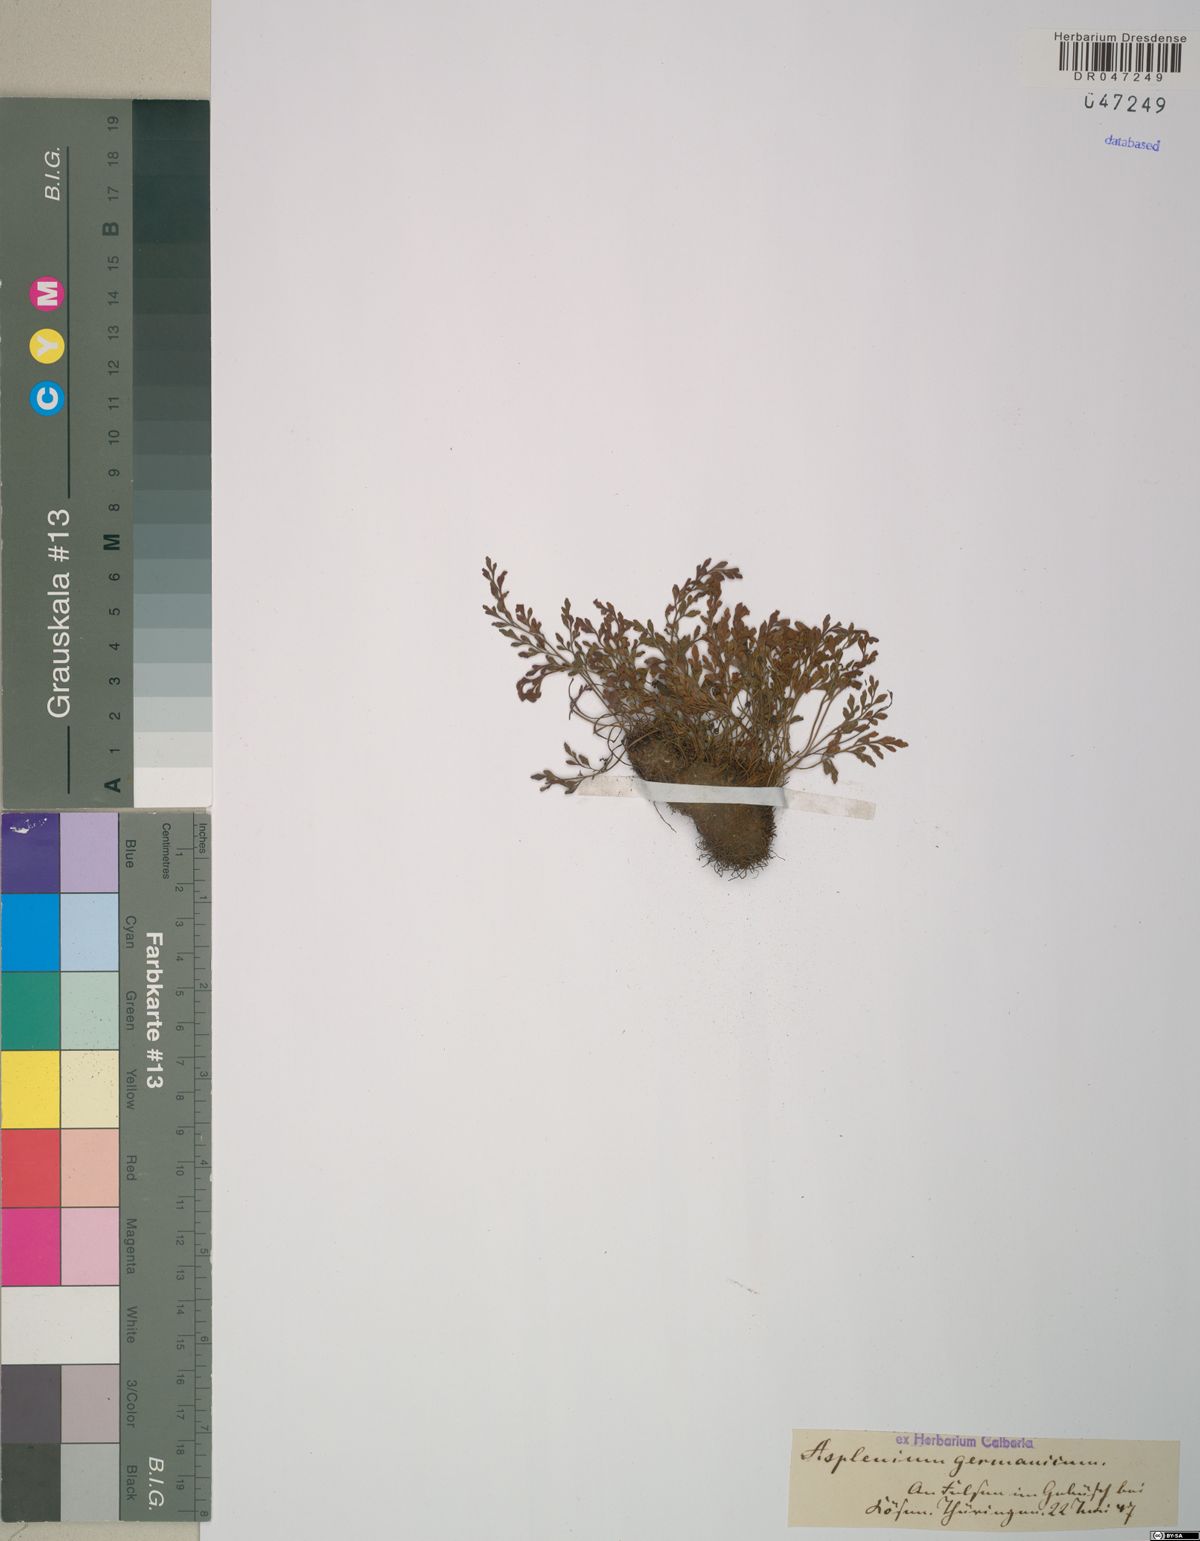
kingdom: Plantae
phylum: Tracheophyta
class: Polypodiopsida
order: Polypodiales
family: Aspleniaceae
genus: Asplenium
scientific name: Asplenium
